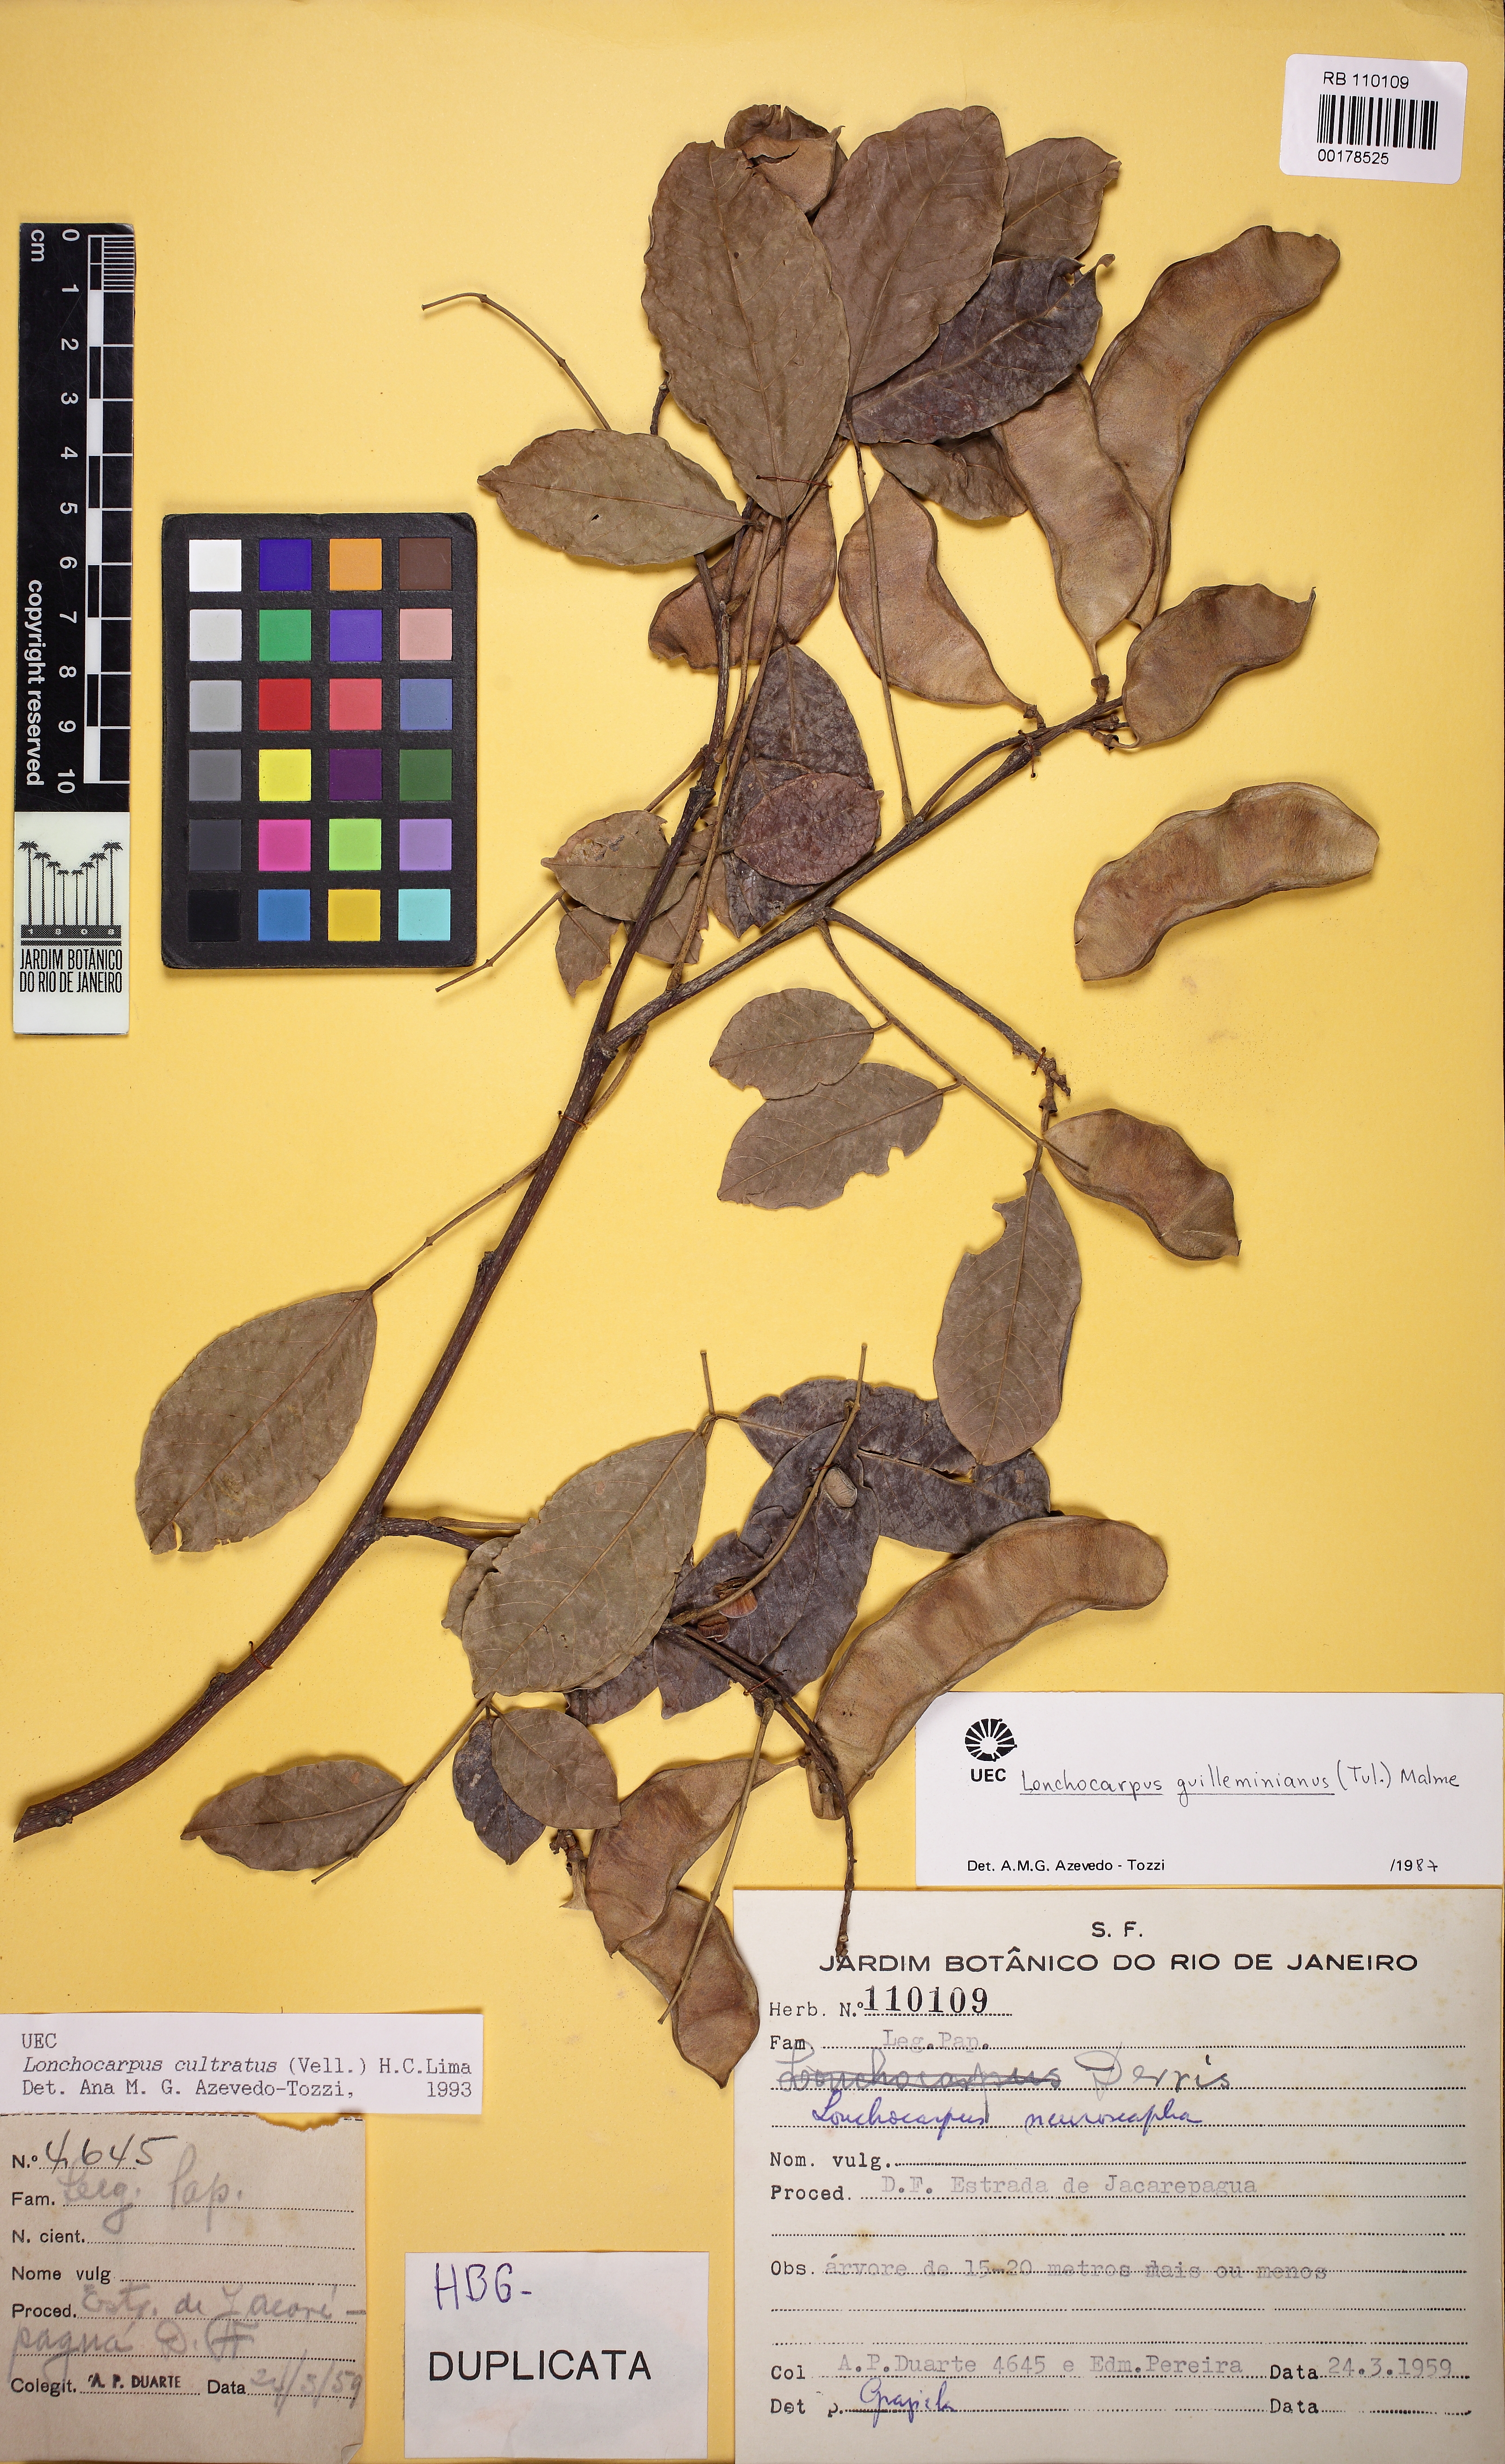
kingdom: Plantae
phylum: Tracheophyta
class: Magnoliopsida
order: Fabales
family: Fabaceae
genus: Lonchocarpus
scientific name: Lonchocarpus cultratus
